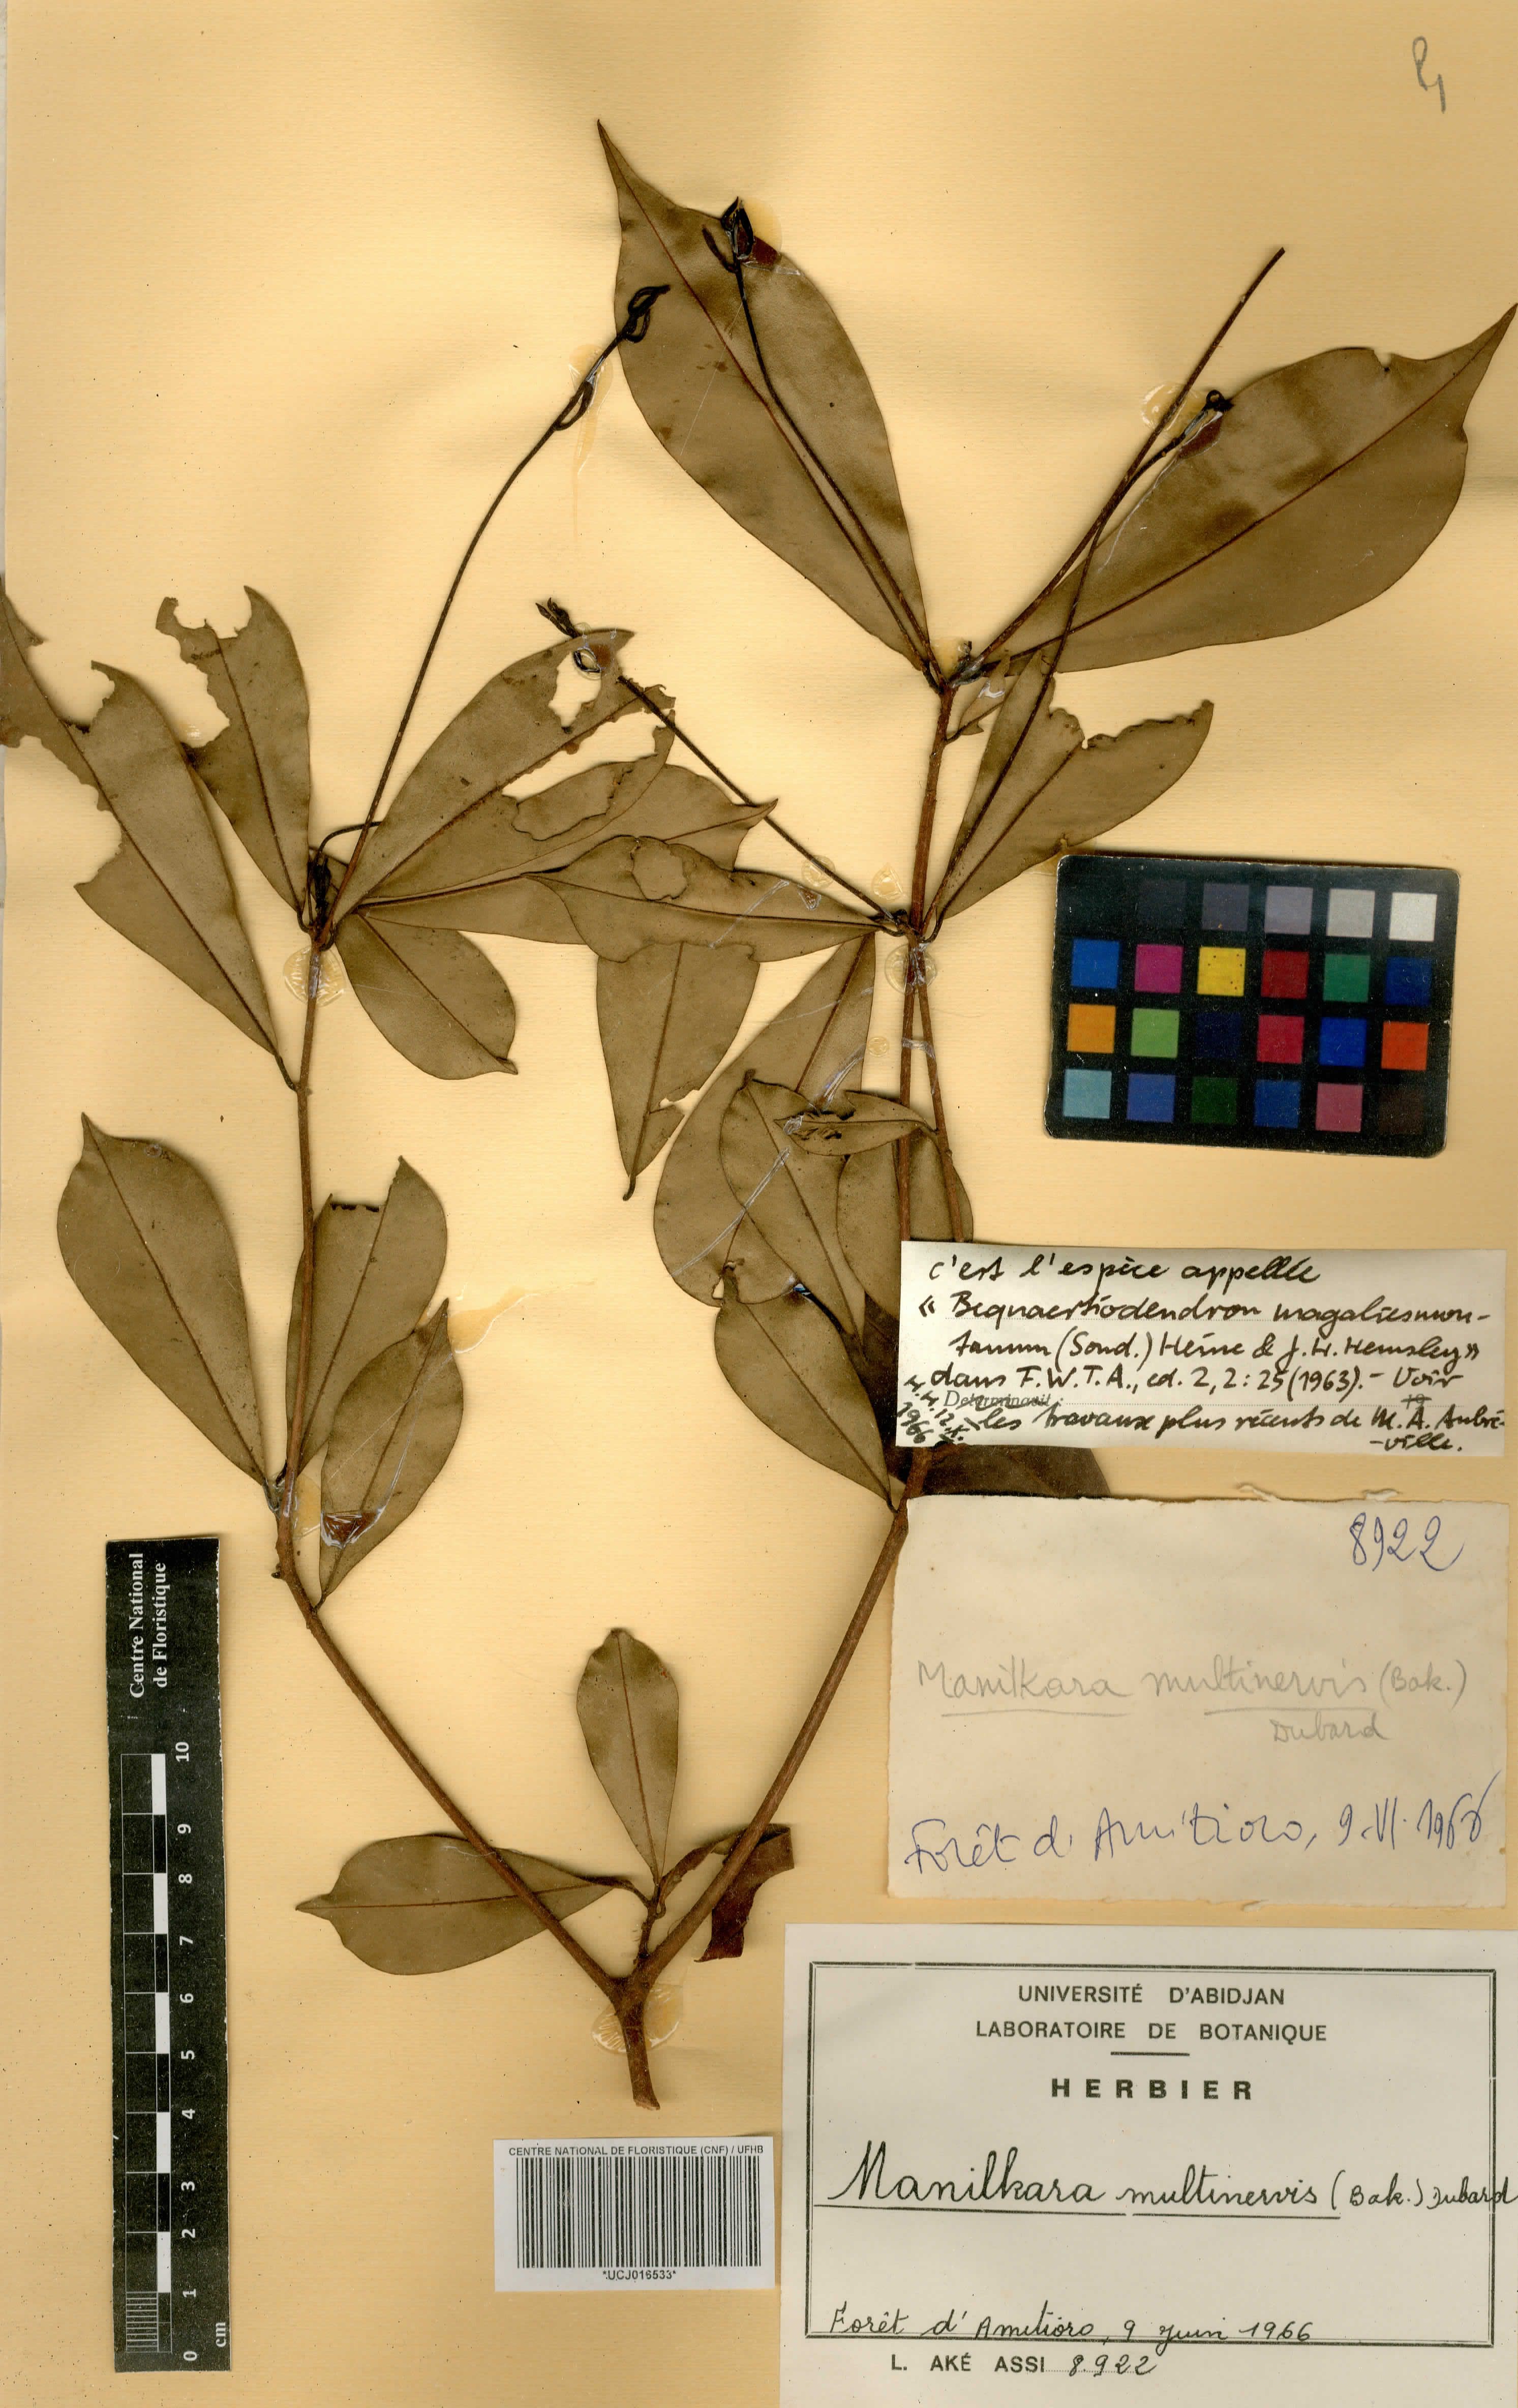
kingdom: Plantae
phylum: Tracheophyta
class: Magnoliopsida
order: Ericales
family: Sapotaceae
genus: Manilkara
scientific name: Manilkara obovata
